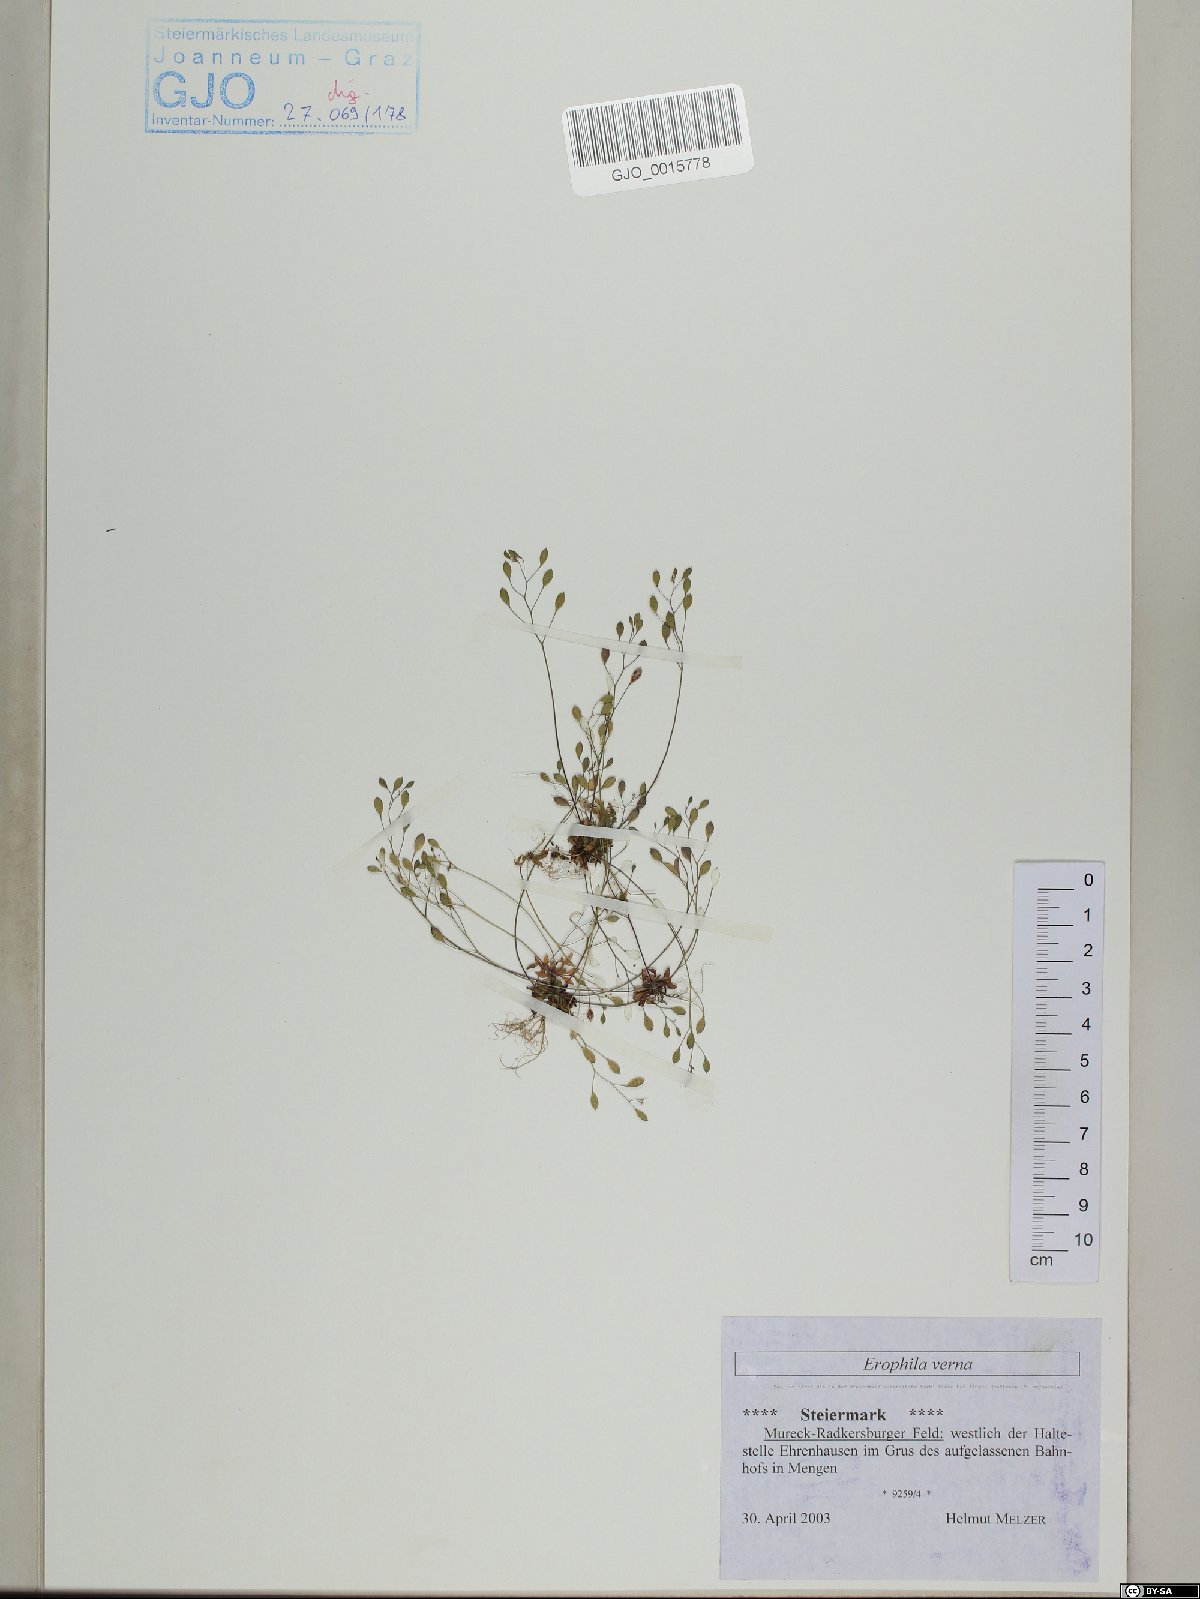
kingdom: Plantae
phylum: Tracheophyta
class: Magnoliopsida
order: Brassicales
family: Brassicaceae
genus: Draba
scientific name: Draba verna
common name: Spring draba
